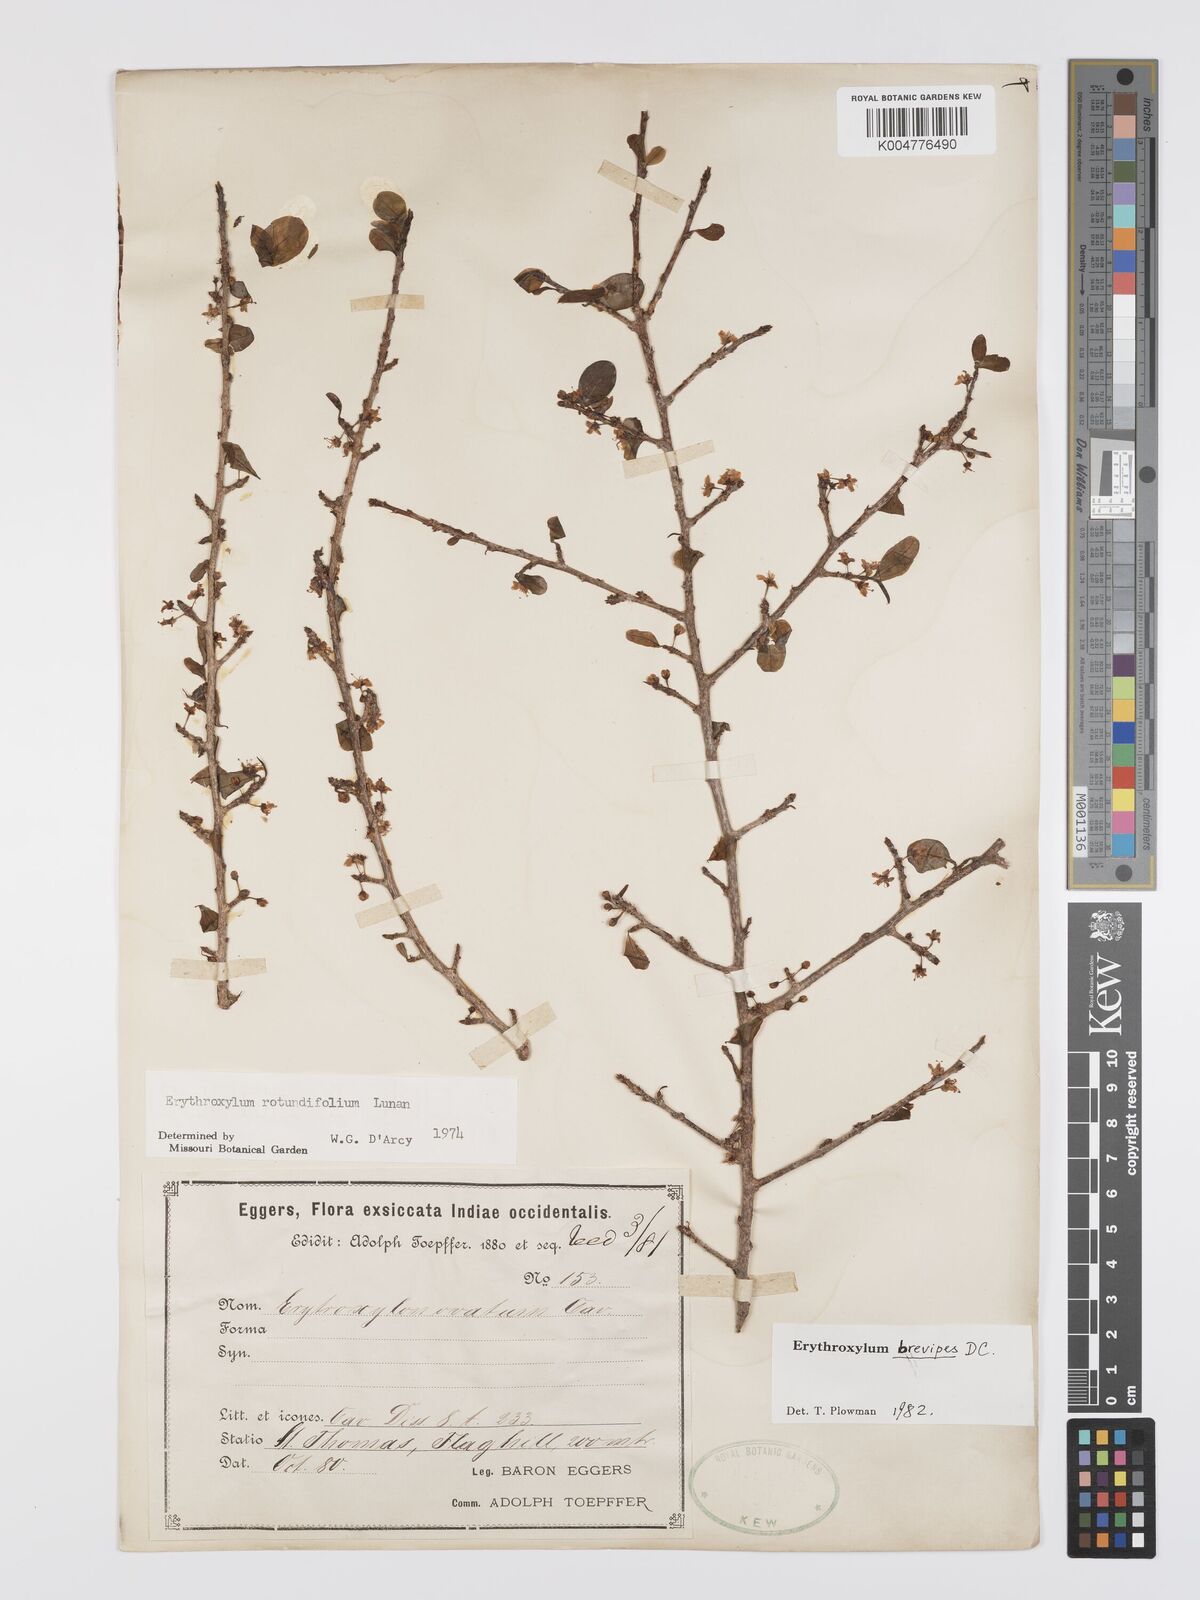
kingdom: Plantae
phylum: Tracheophyta
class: Magnoliopsida
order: Malpighiales
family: Erythroxylaceae
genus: Erythroxylum
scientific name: Erythroxylum brevipes
